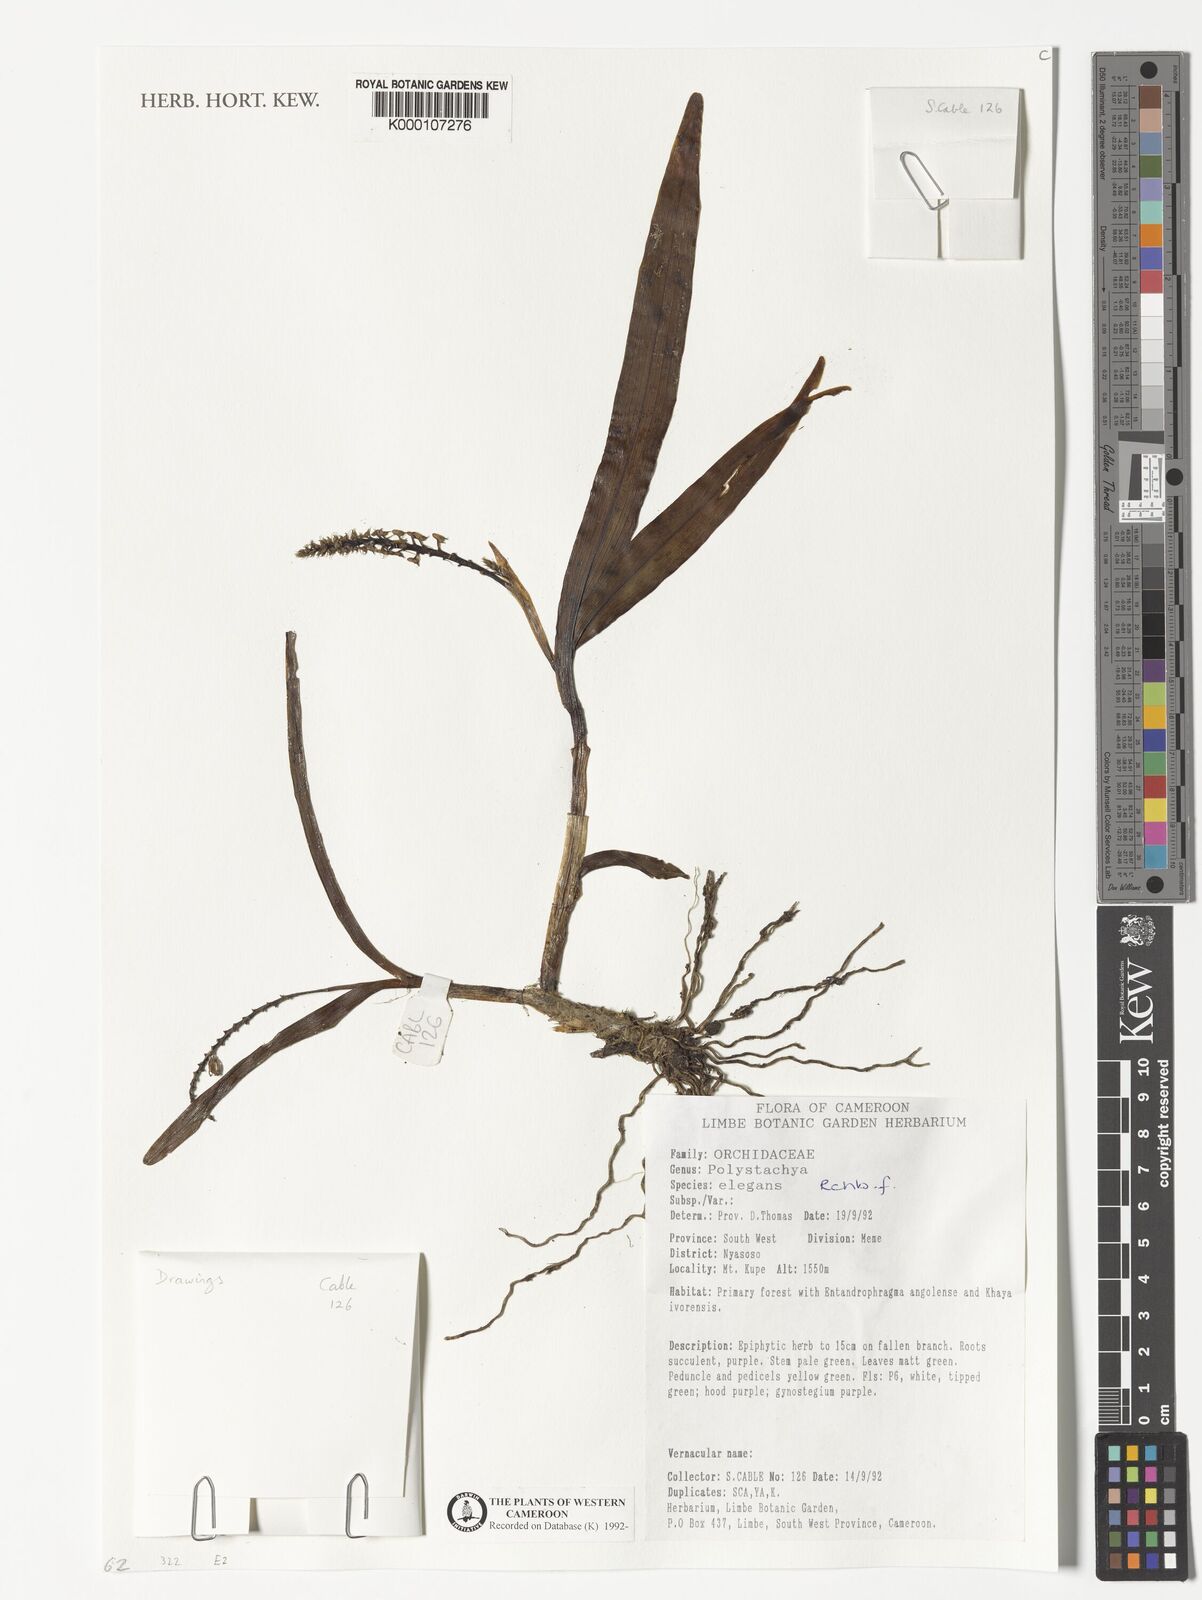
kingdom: Plantae
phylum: Tracheophyta
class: Liliopsida
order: Asparagales
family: Orchidaceae
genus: Polystachya
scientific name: Polystachya elegans
